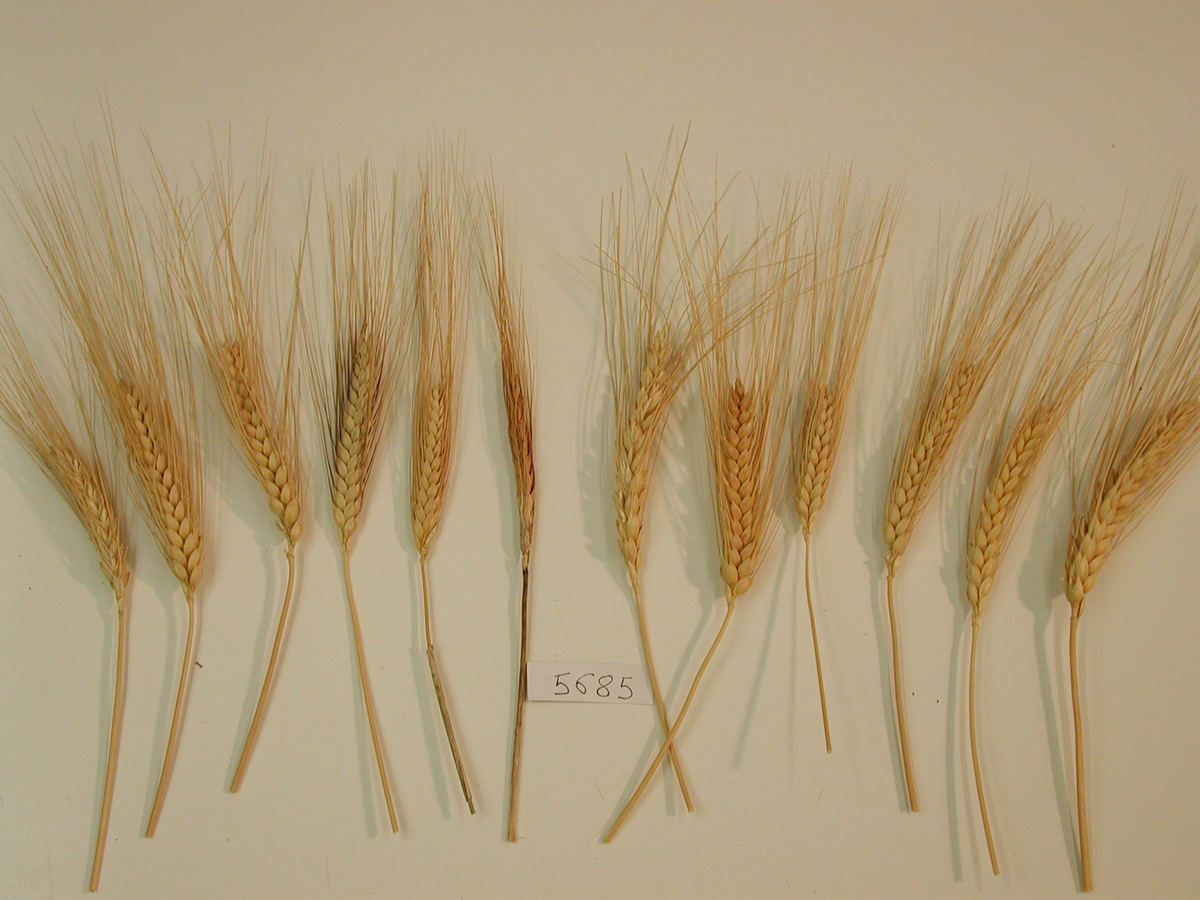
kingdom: Plantae
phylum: Tracheophyta
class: Liliopsida
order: Poales
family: Poaceae
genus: Triticum
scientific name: Triticum aestivum
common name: Wheat
